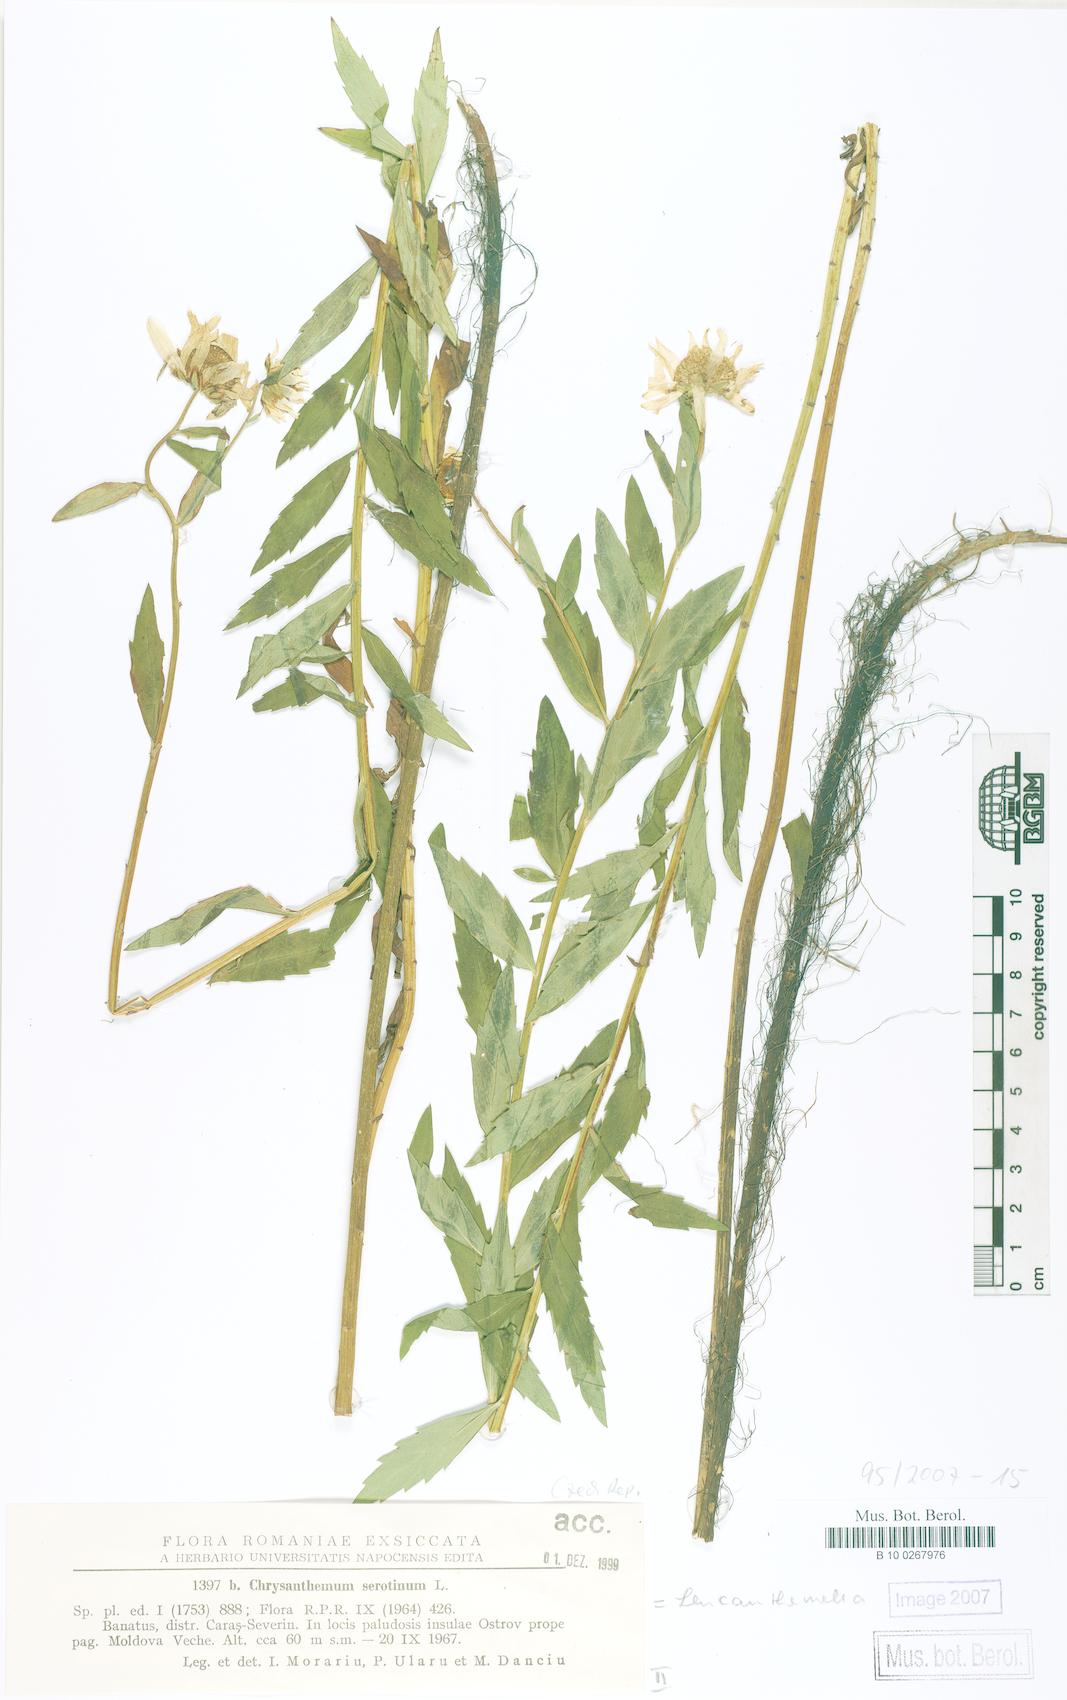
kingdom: Plantae
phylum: Tracheophyta
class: Magnoliopsida
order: Asterales
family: Asteraceae
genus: Leucanthemella
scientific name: Leucanthemella serotina
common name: Autumn oxeye
